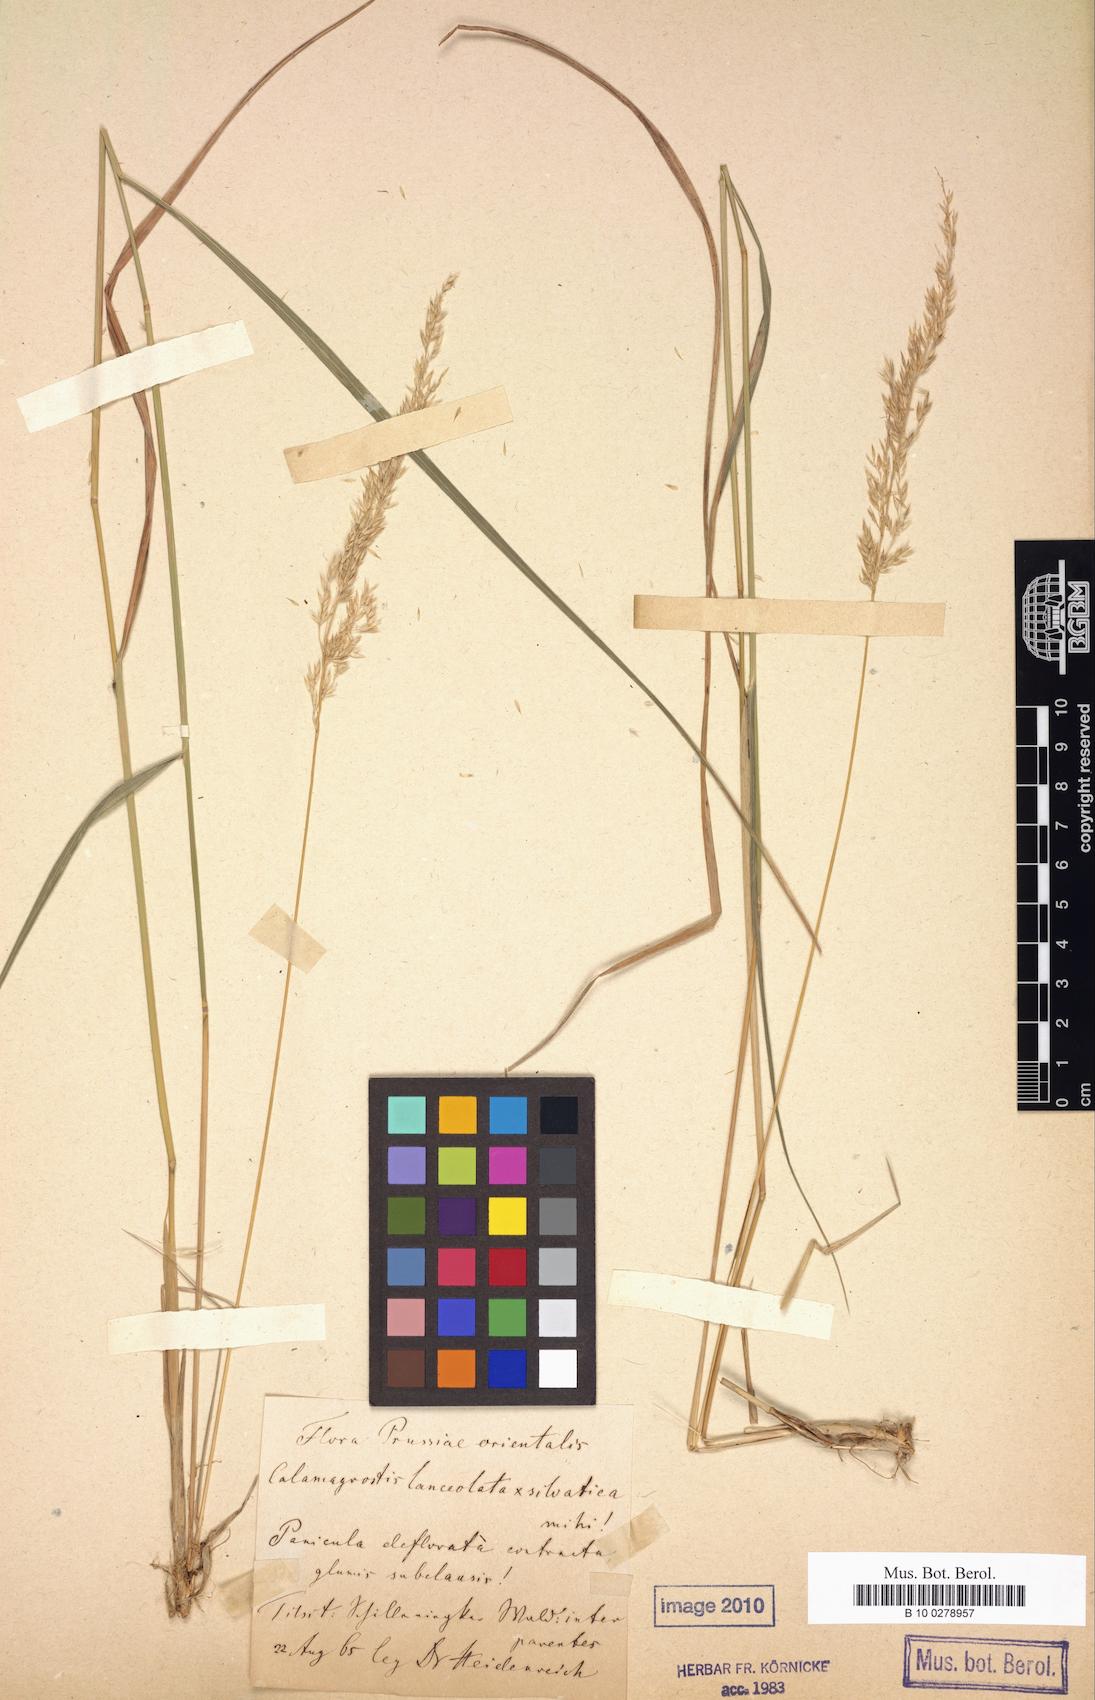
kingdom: Plantae
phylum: Tracheophyta
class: Liliopsida
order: Poales
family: Poaceae
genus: Calamagrostis
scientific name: Calamagrostis villosa
